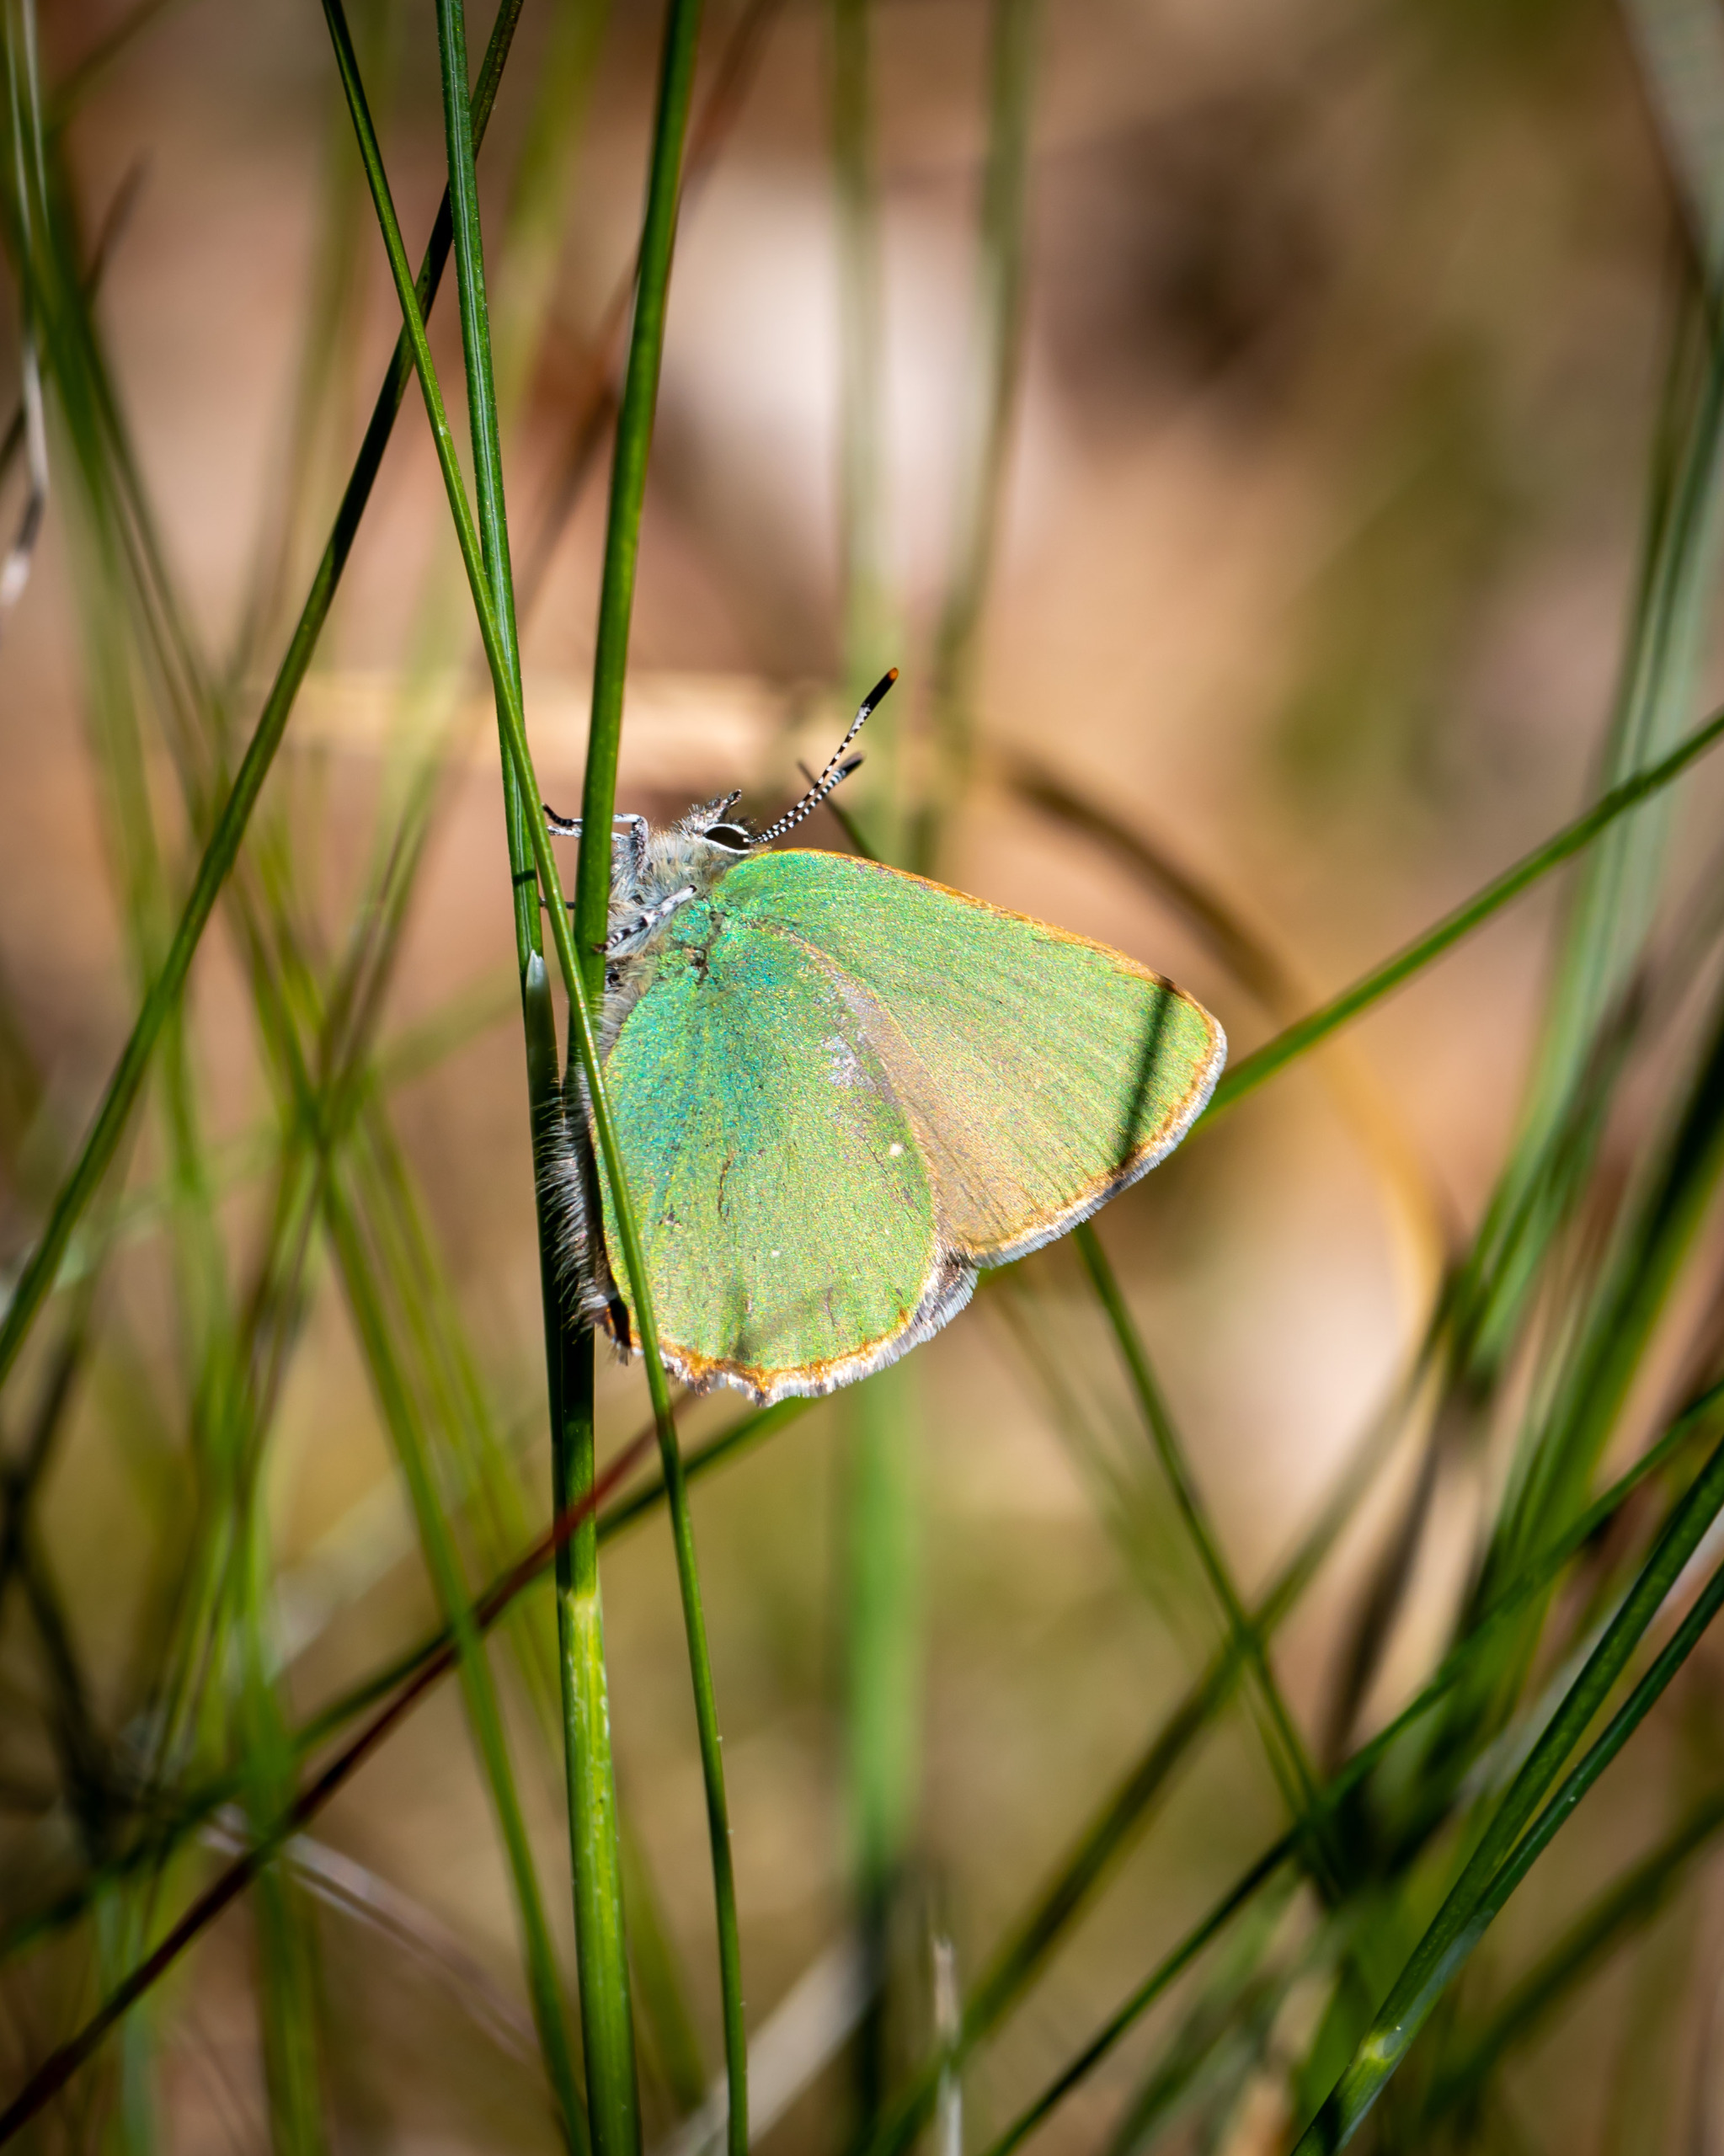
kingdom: Animalia
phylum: Arthropoda
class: Insecta
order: Lepidoptera
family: Lycaenidae
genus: Callophrys
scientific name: Callophrys rubi
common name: Grøn busksommerfugl
